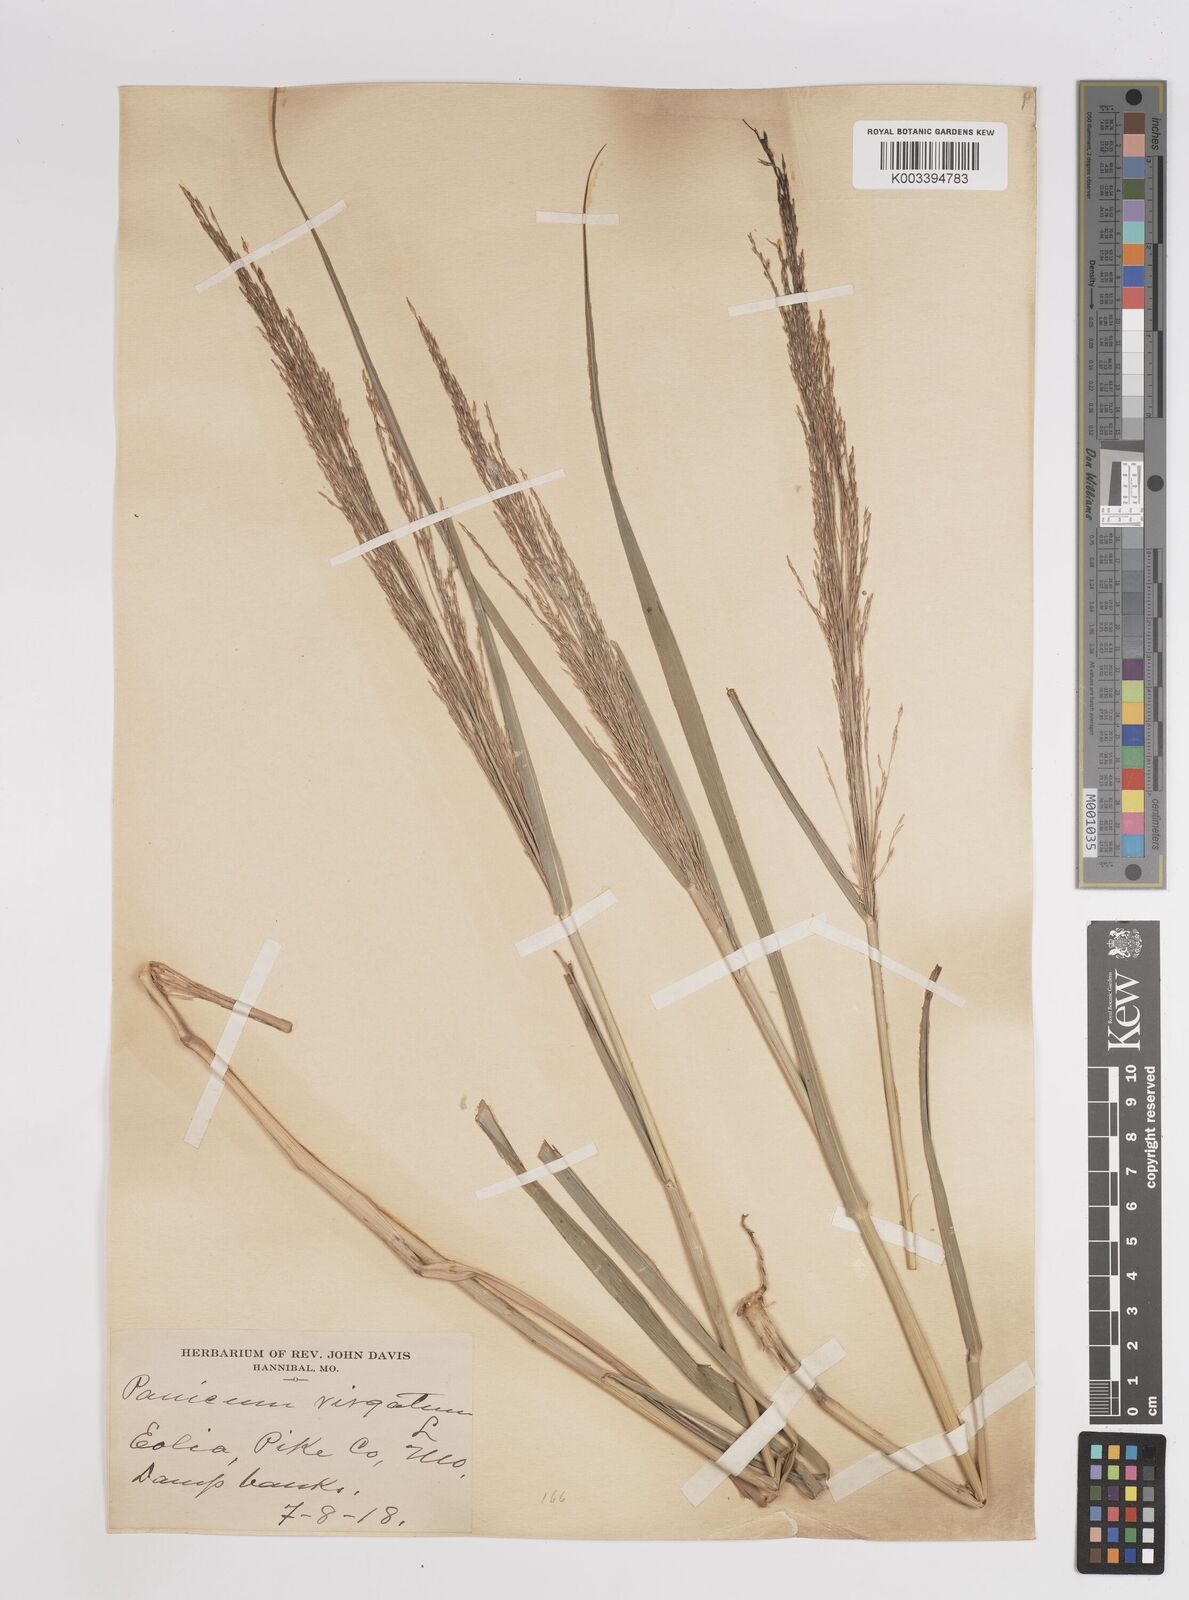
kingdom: Plantae
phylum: Tracheophyta
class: Liliopsida
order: Poales
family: Poaceae
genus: Panicum
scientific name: Panicum virgatum
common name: Switchgrass
